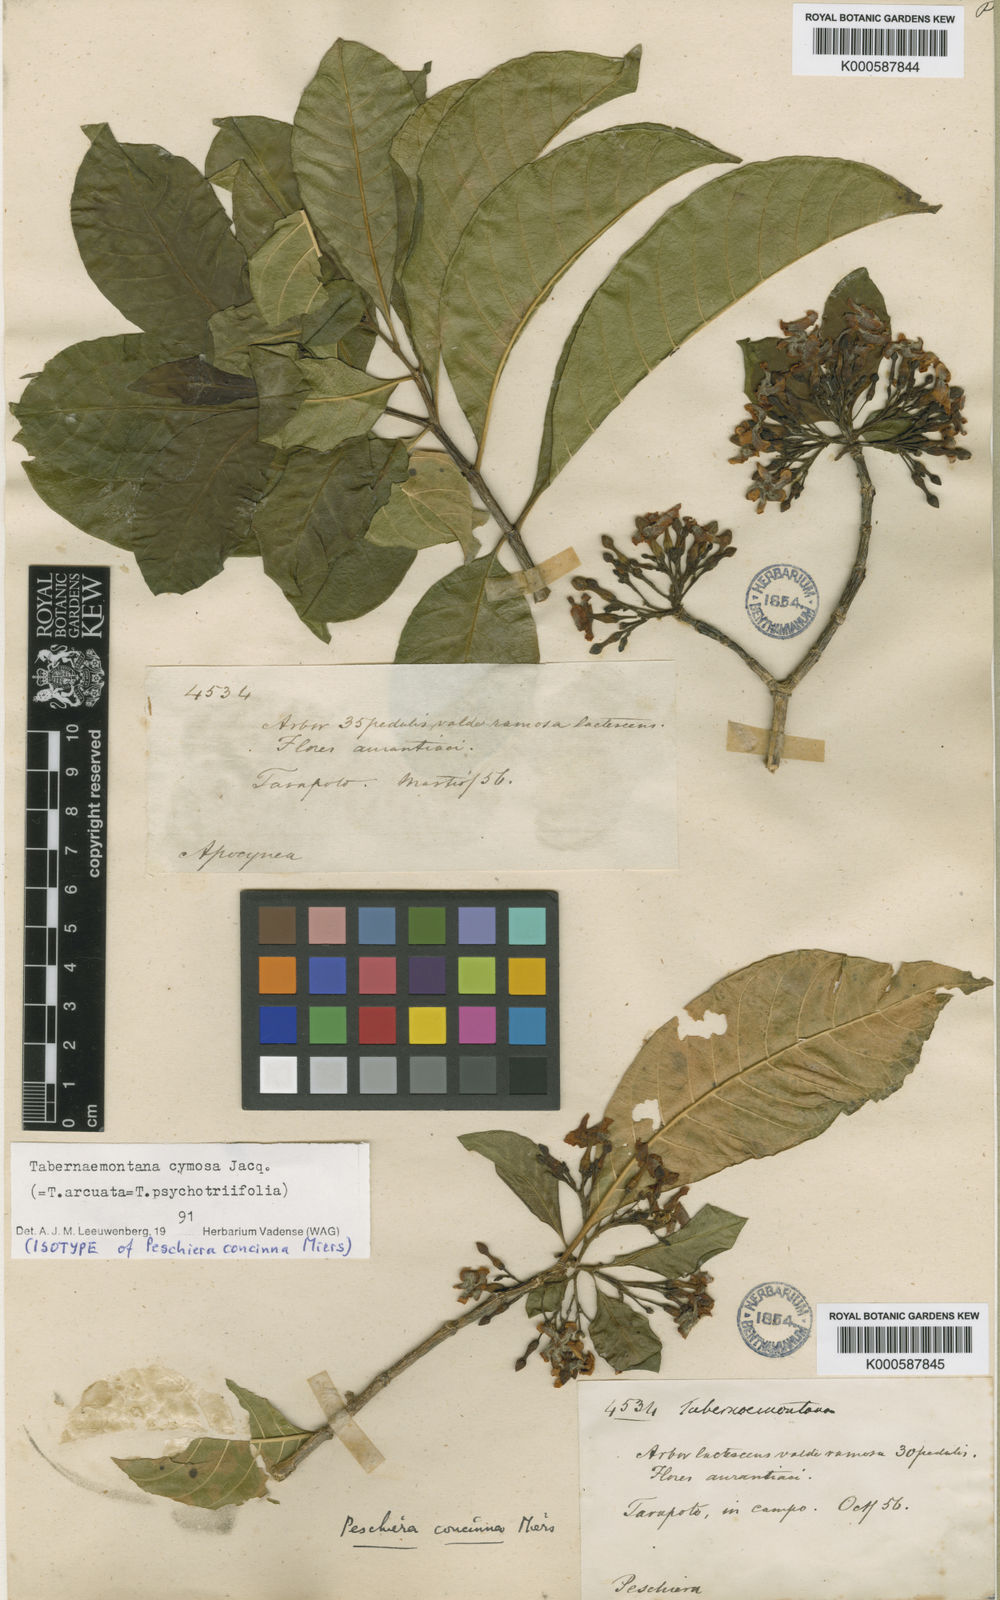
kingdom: Plantae
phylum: Tracheophyta
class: Magnoliopsida
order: Gentianales
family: Apocynaceae
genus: Tabernaemontana
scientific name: Tabernaemontana cymosa
